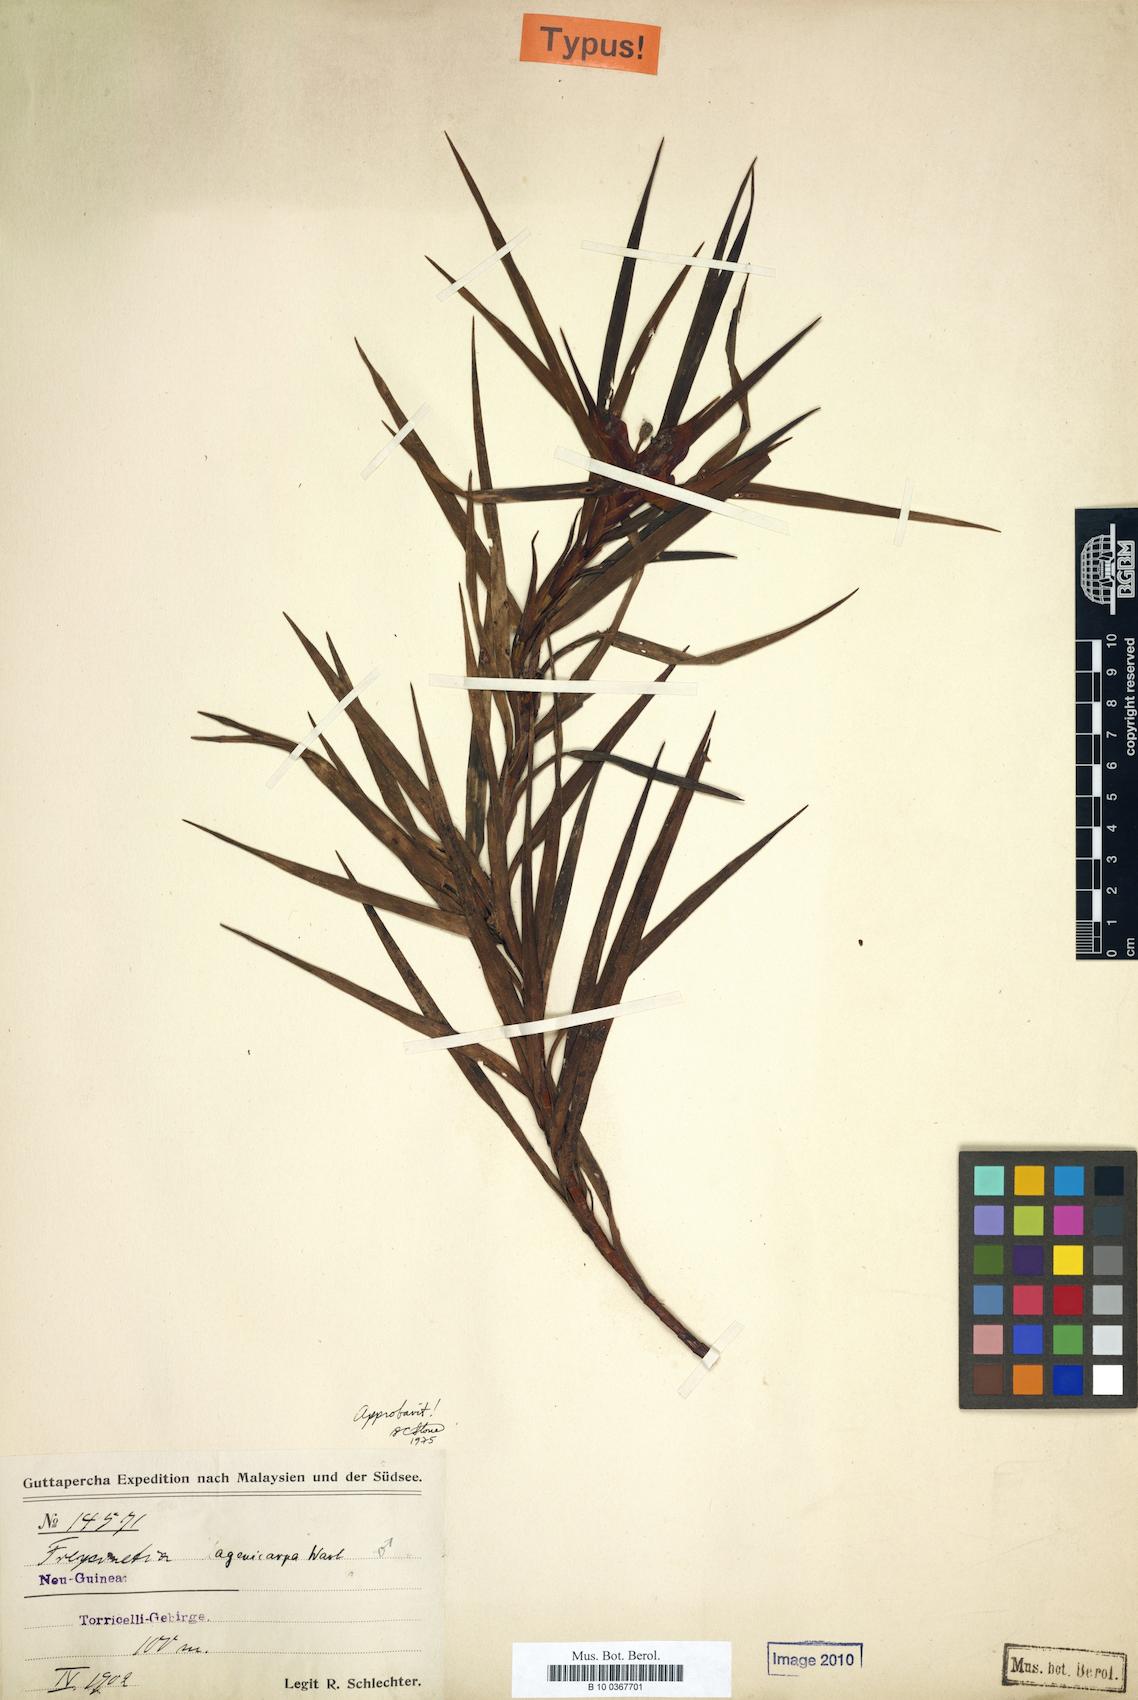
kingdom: Plantae
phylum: Tracheophyta
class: Liliopsida
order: Pandanales
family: Pandanaceae
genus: Freycinetia
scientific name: Freycinetia lagenicarpa
